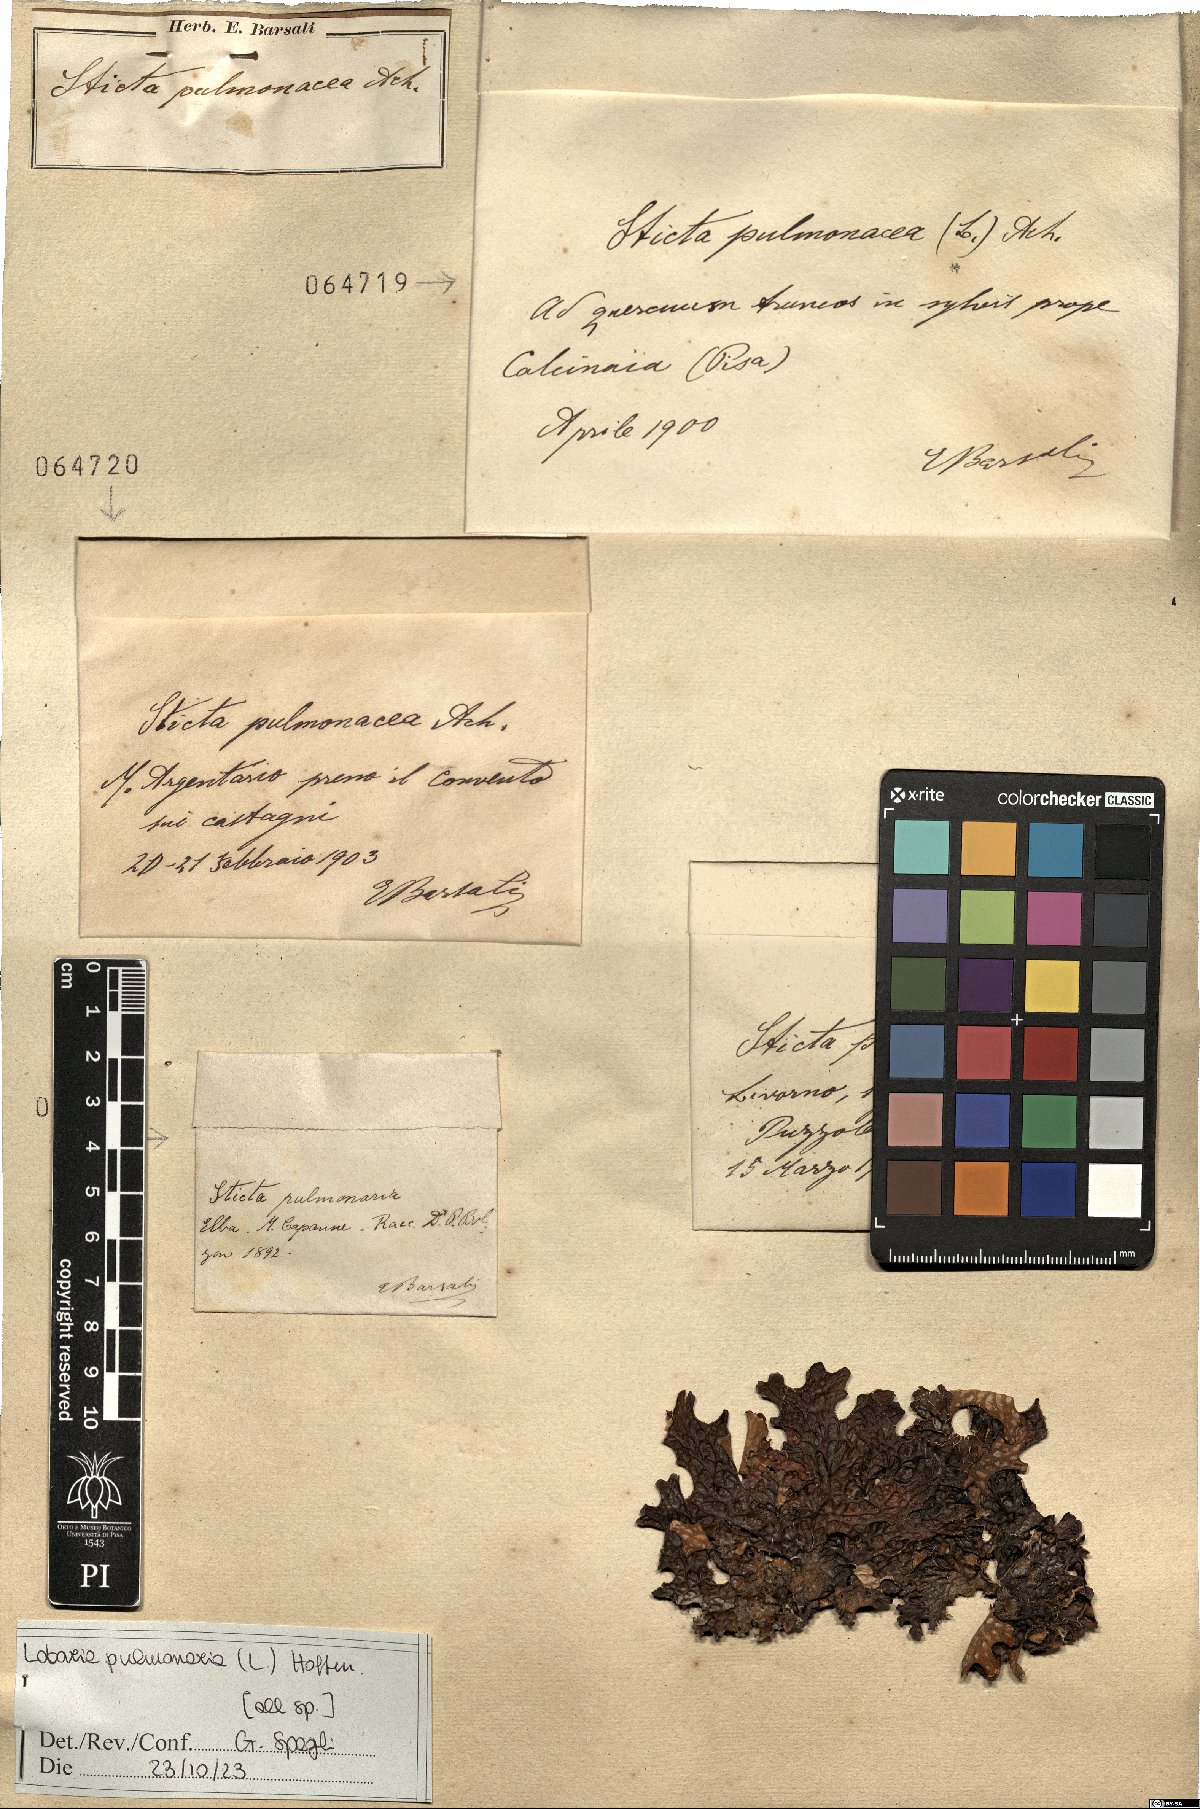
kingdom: Fungi
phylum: Ascomycota
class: Lecanoromycetes
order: Peltigerales
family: Lobariaceae
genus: Lobaria
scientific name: Lobaria pulmonaria
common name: Lungwort
